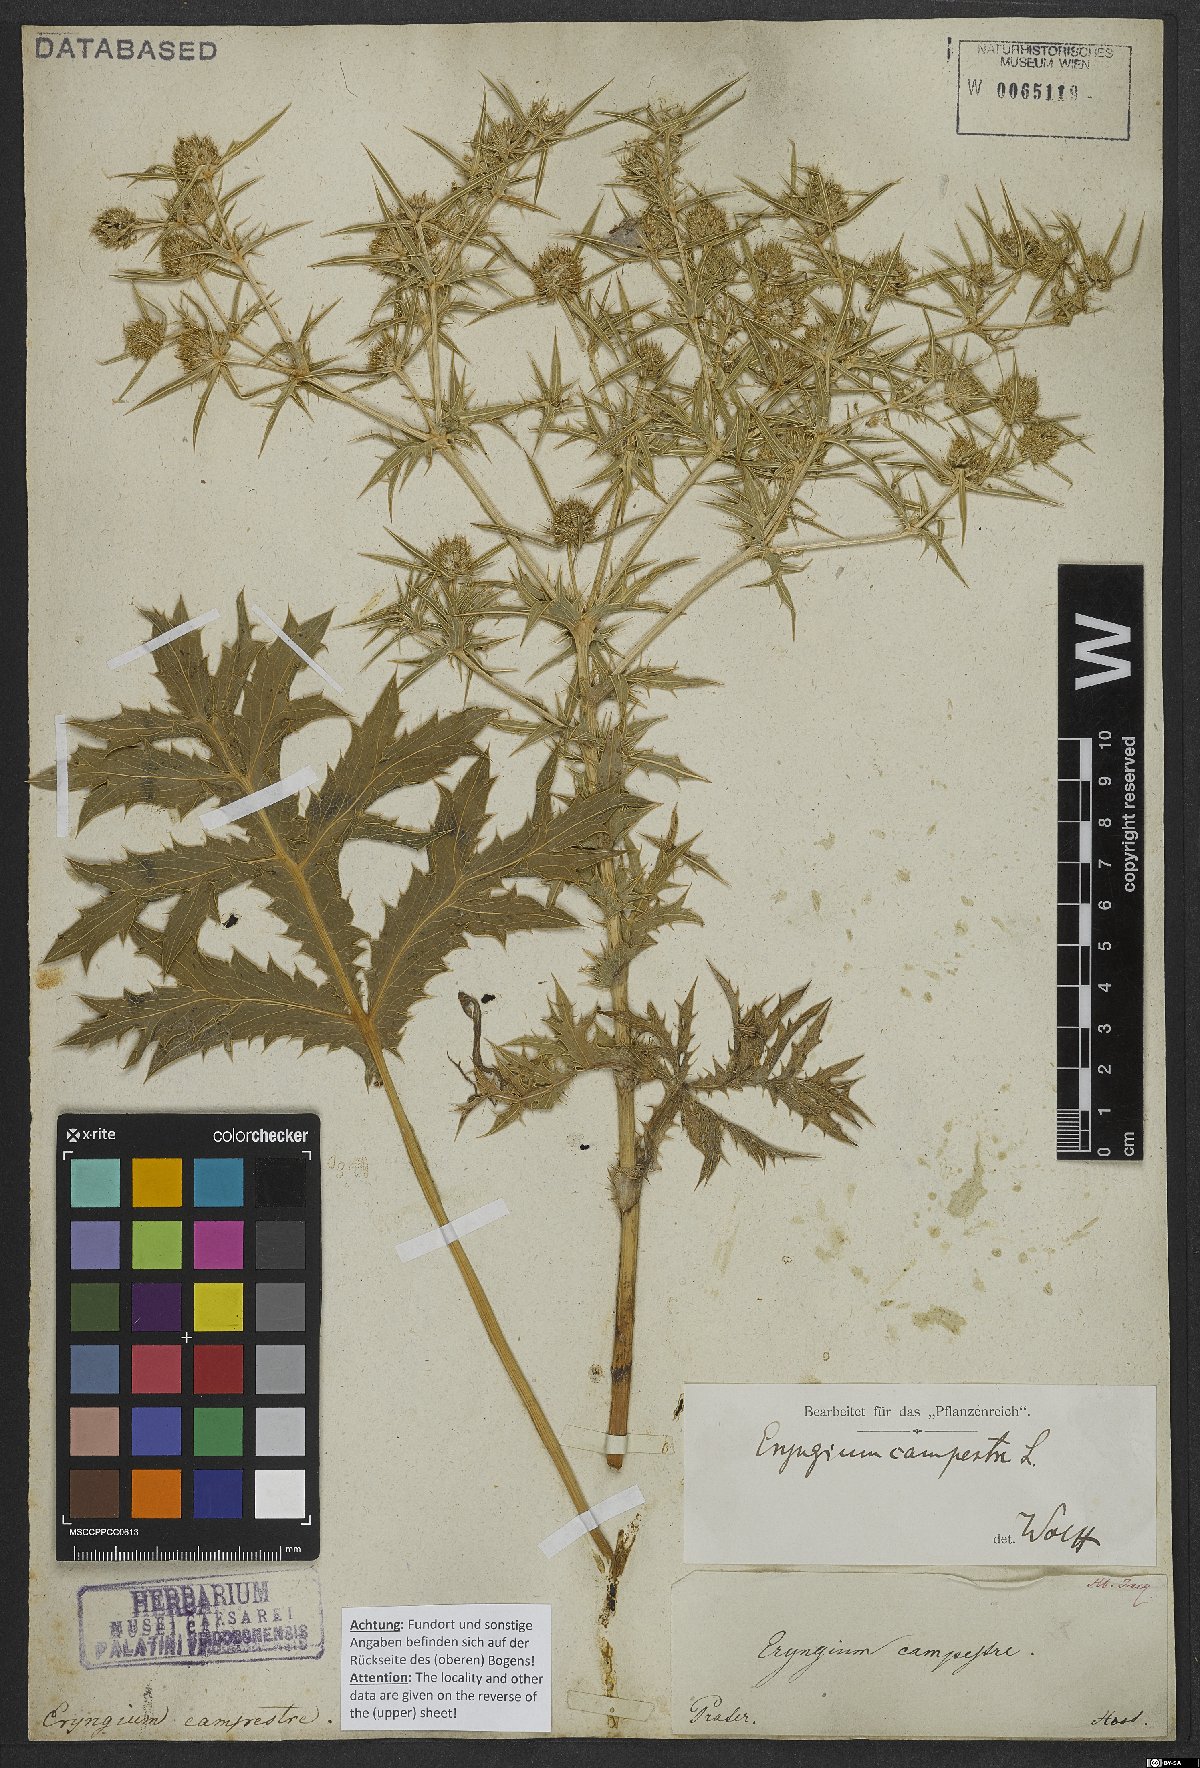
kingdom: Plantae
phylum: Tracheophyta
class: Magnoliopsida
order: Apiales
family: Apiaceae
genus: Eryngium
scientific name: Eryngium campestre
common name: Field eryngo
